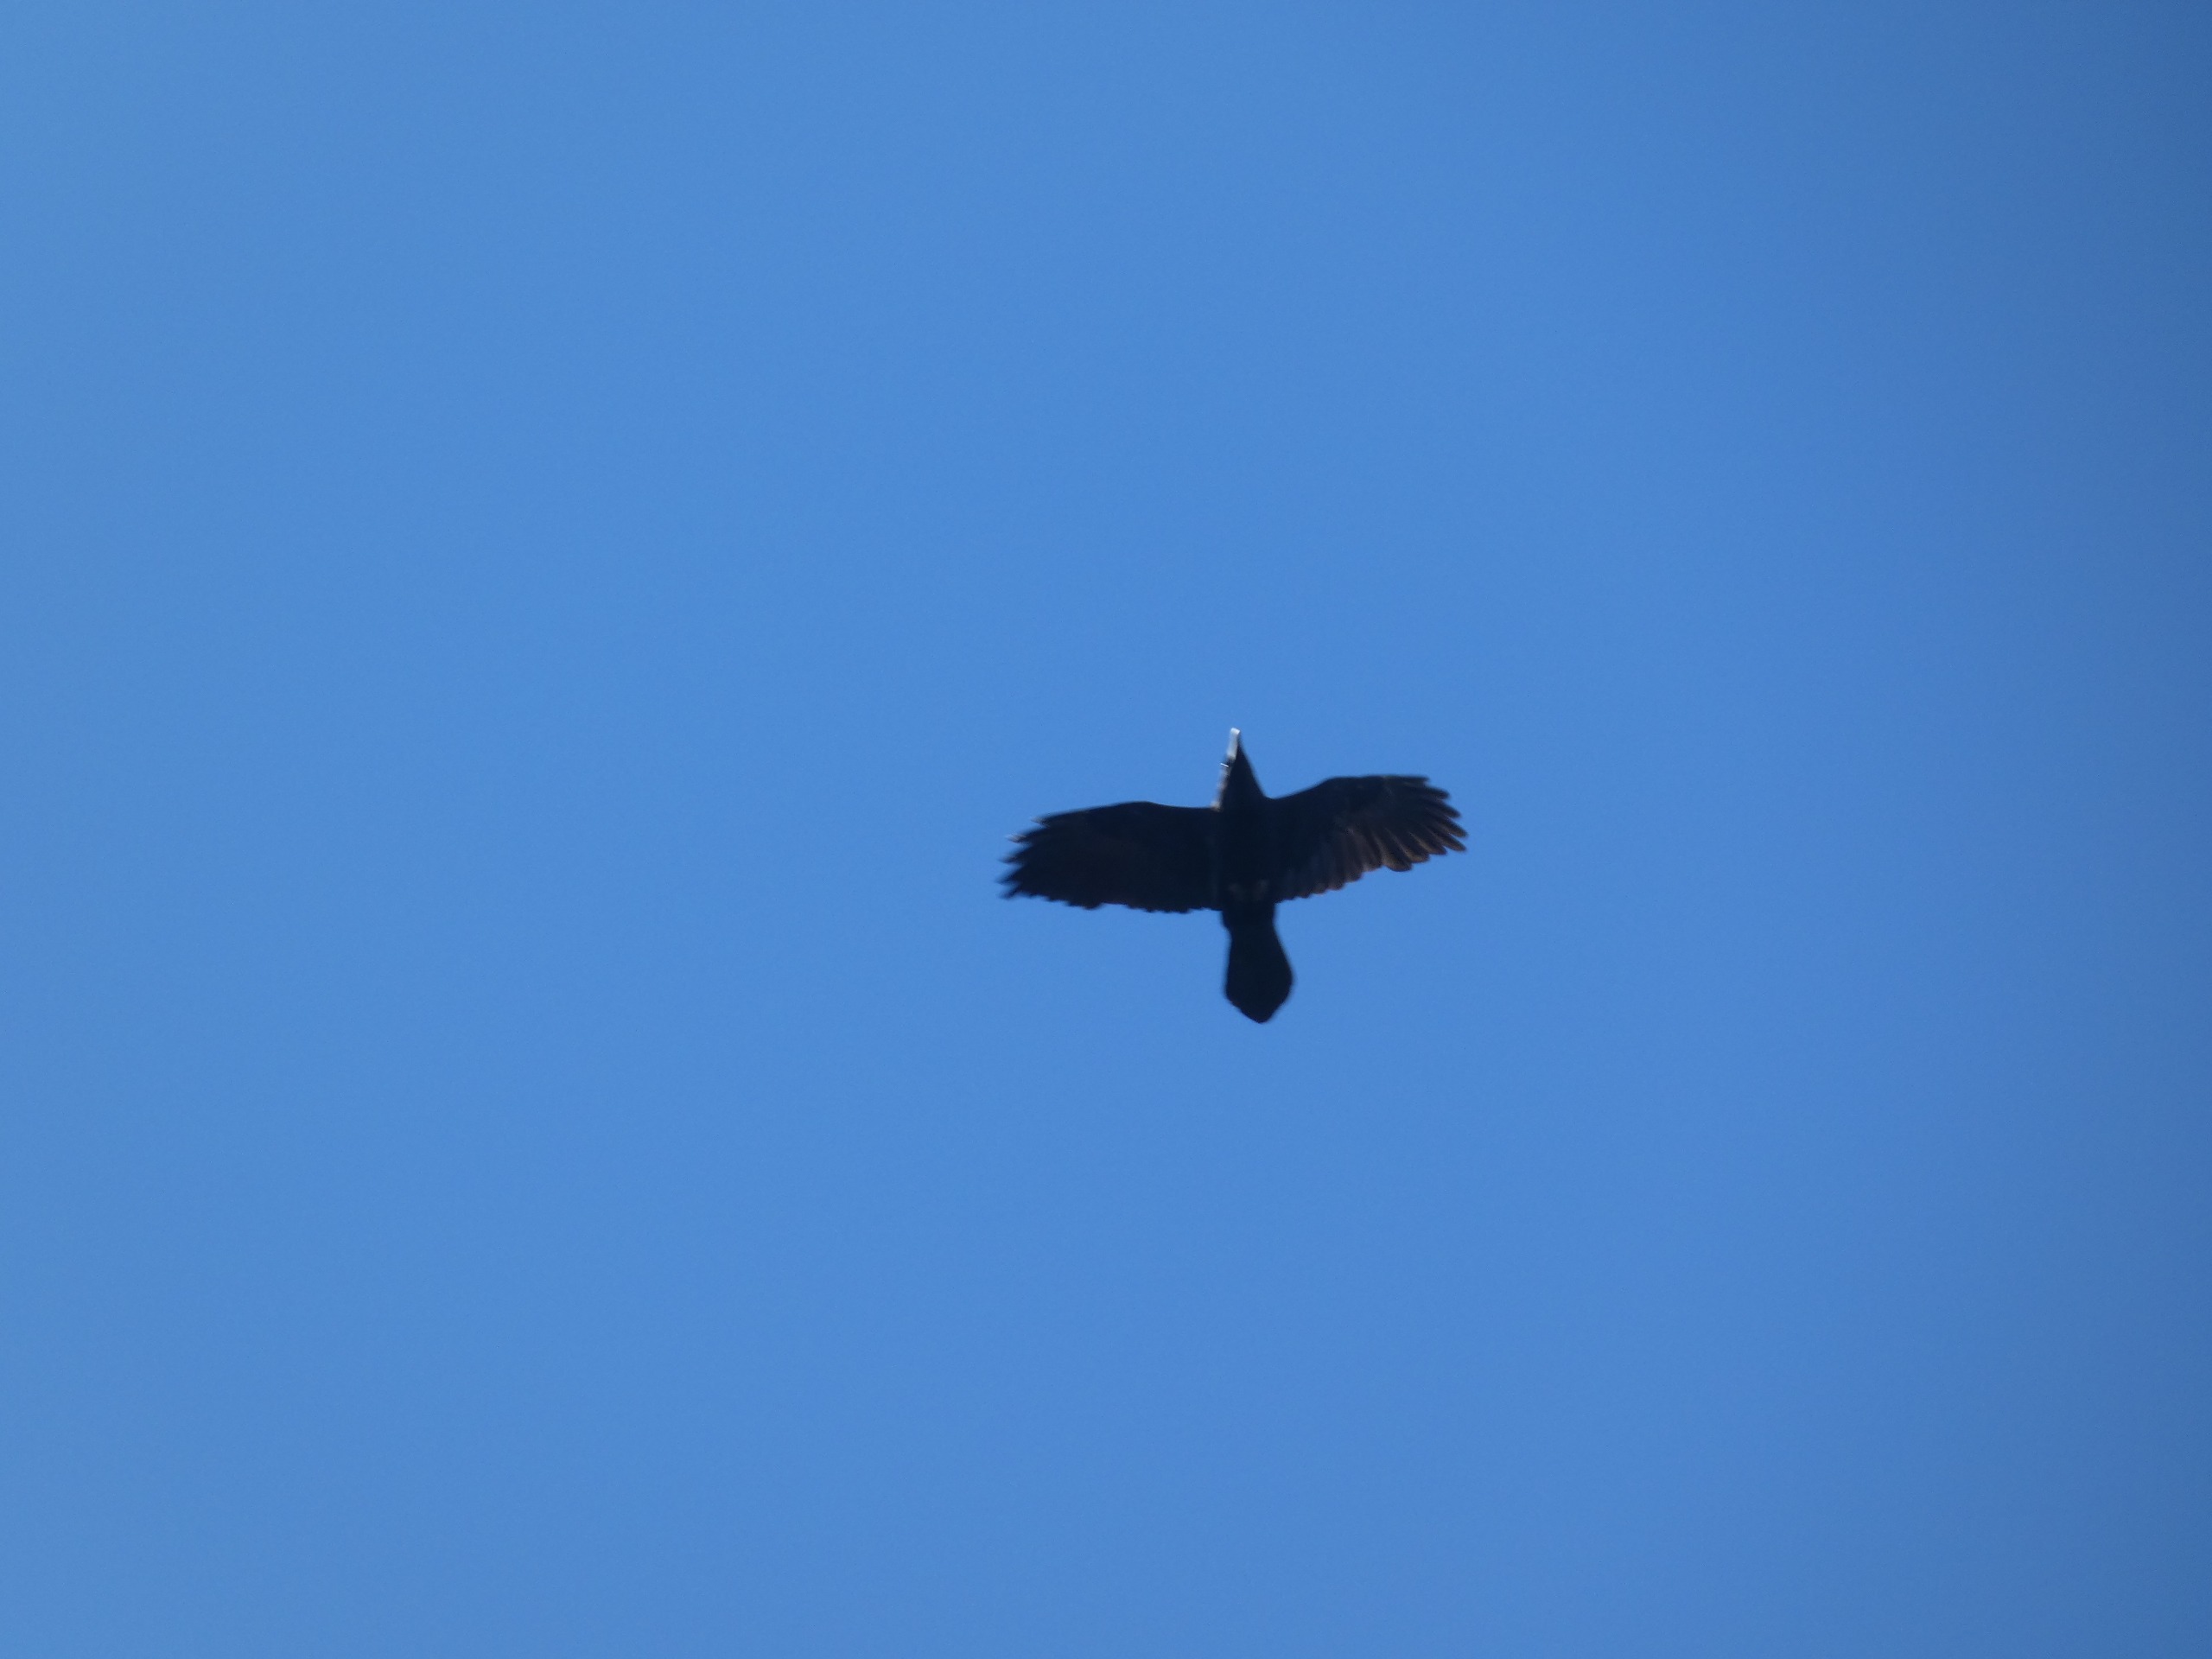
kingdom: Animalia
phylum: Chordata
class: Aves
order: Passeriformes
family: Corvidae
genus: Corvus
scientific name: Corvus corax
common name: Ravn
